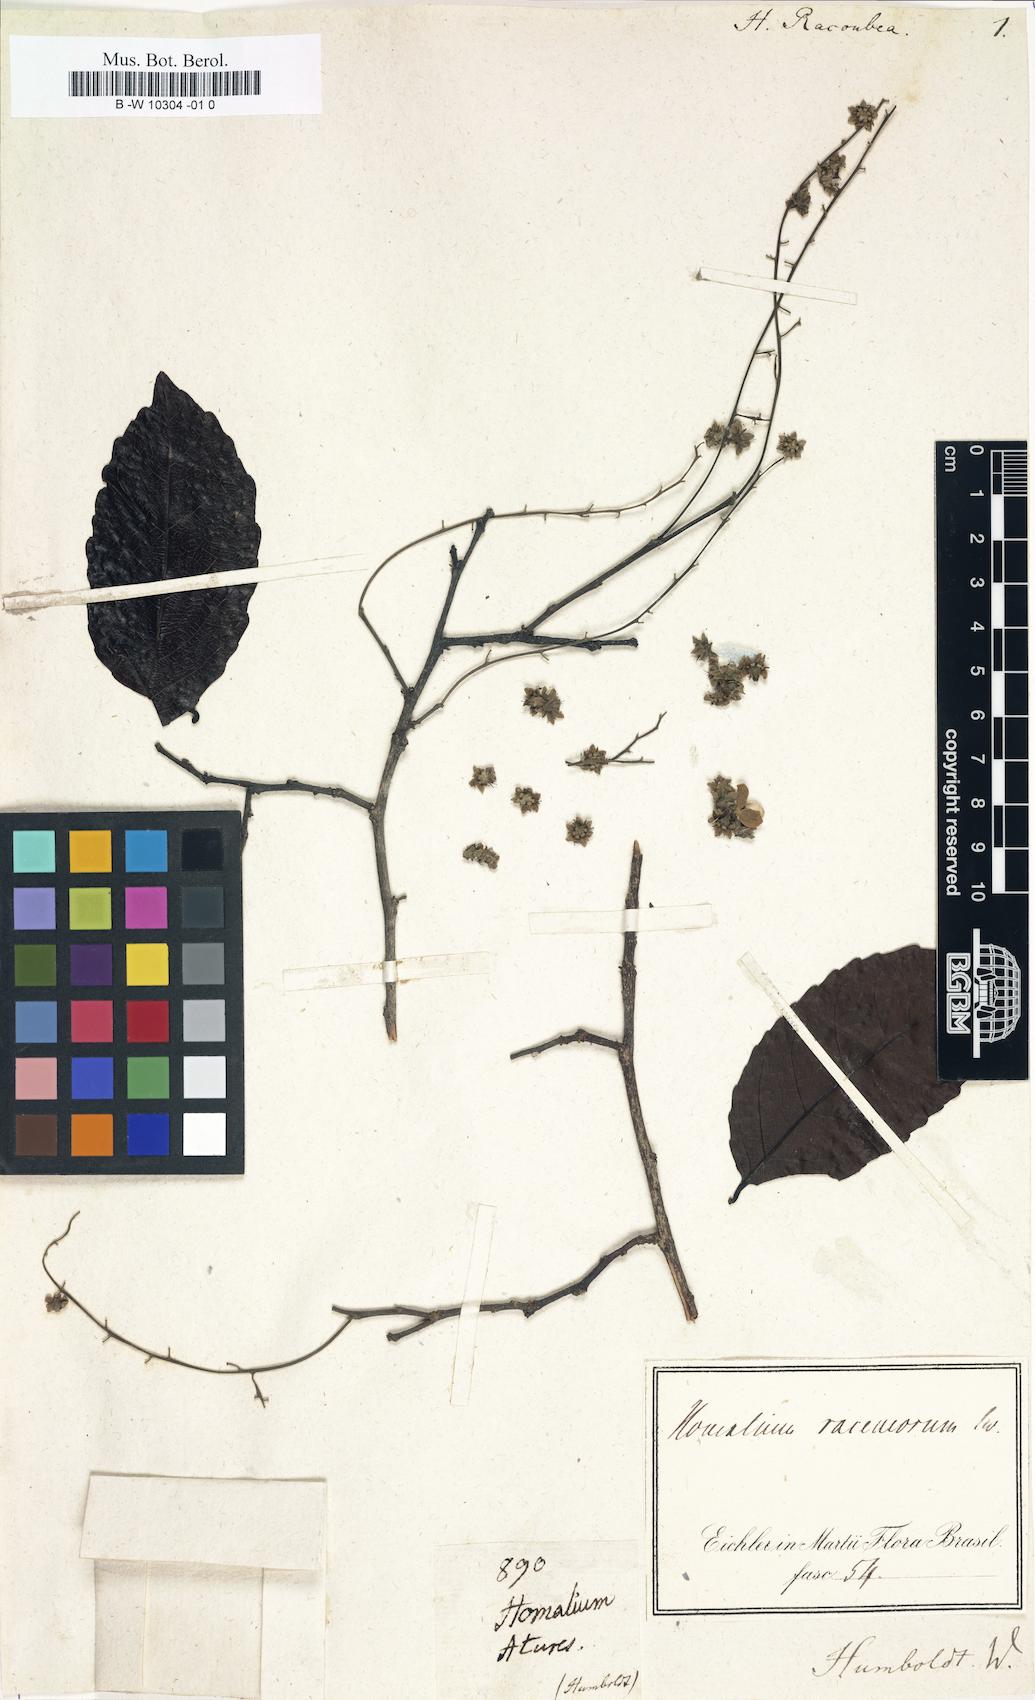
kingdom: Plantae
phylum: Tracheophyta
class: Magnoliopsida
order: Malpighiales
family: Salicaceae
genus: Homalium
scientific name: Homalium guianense
